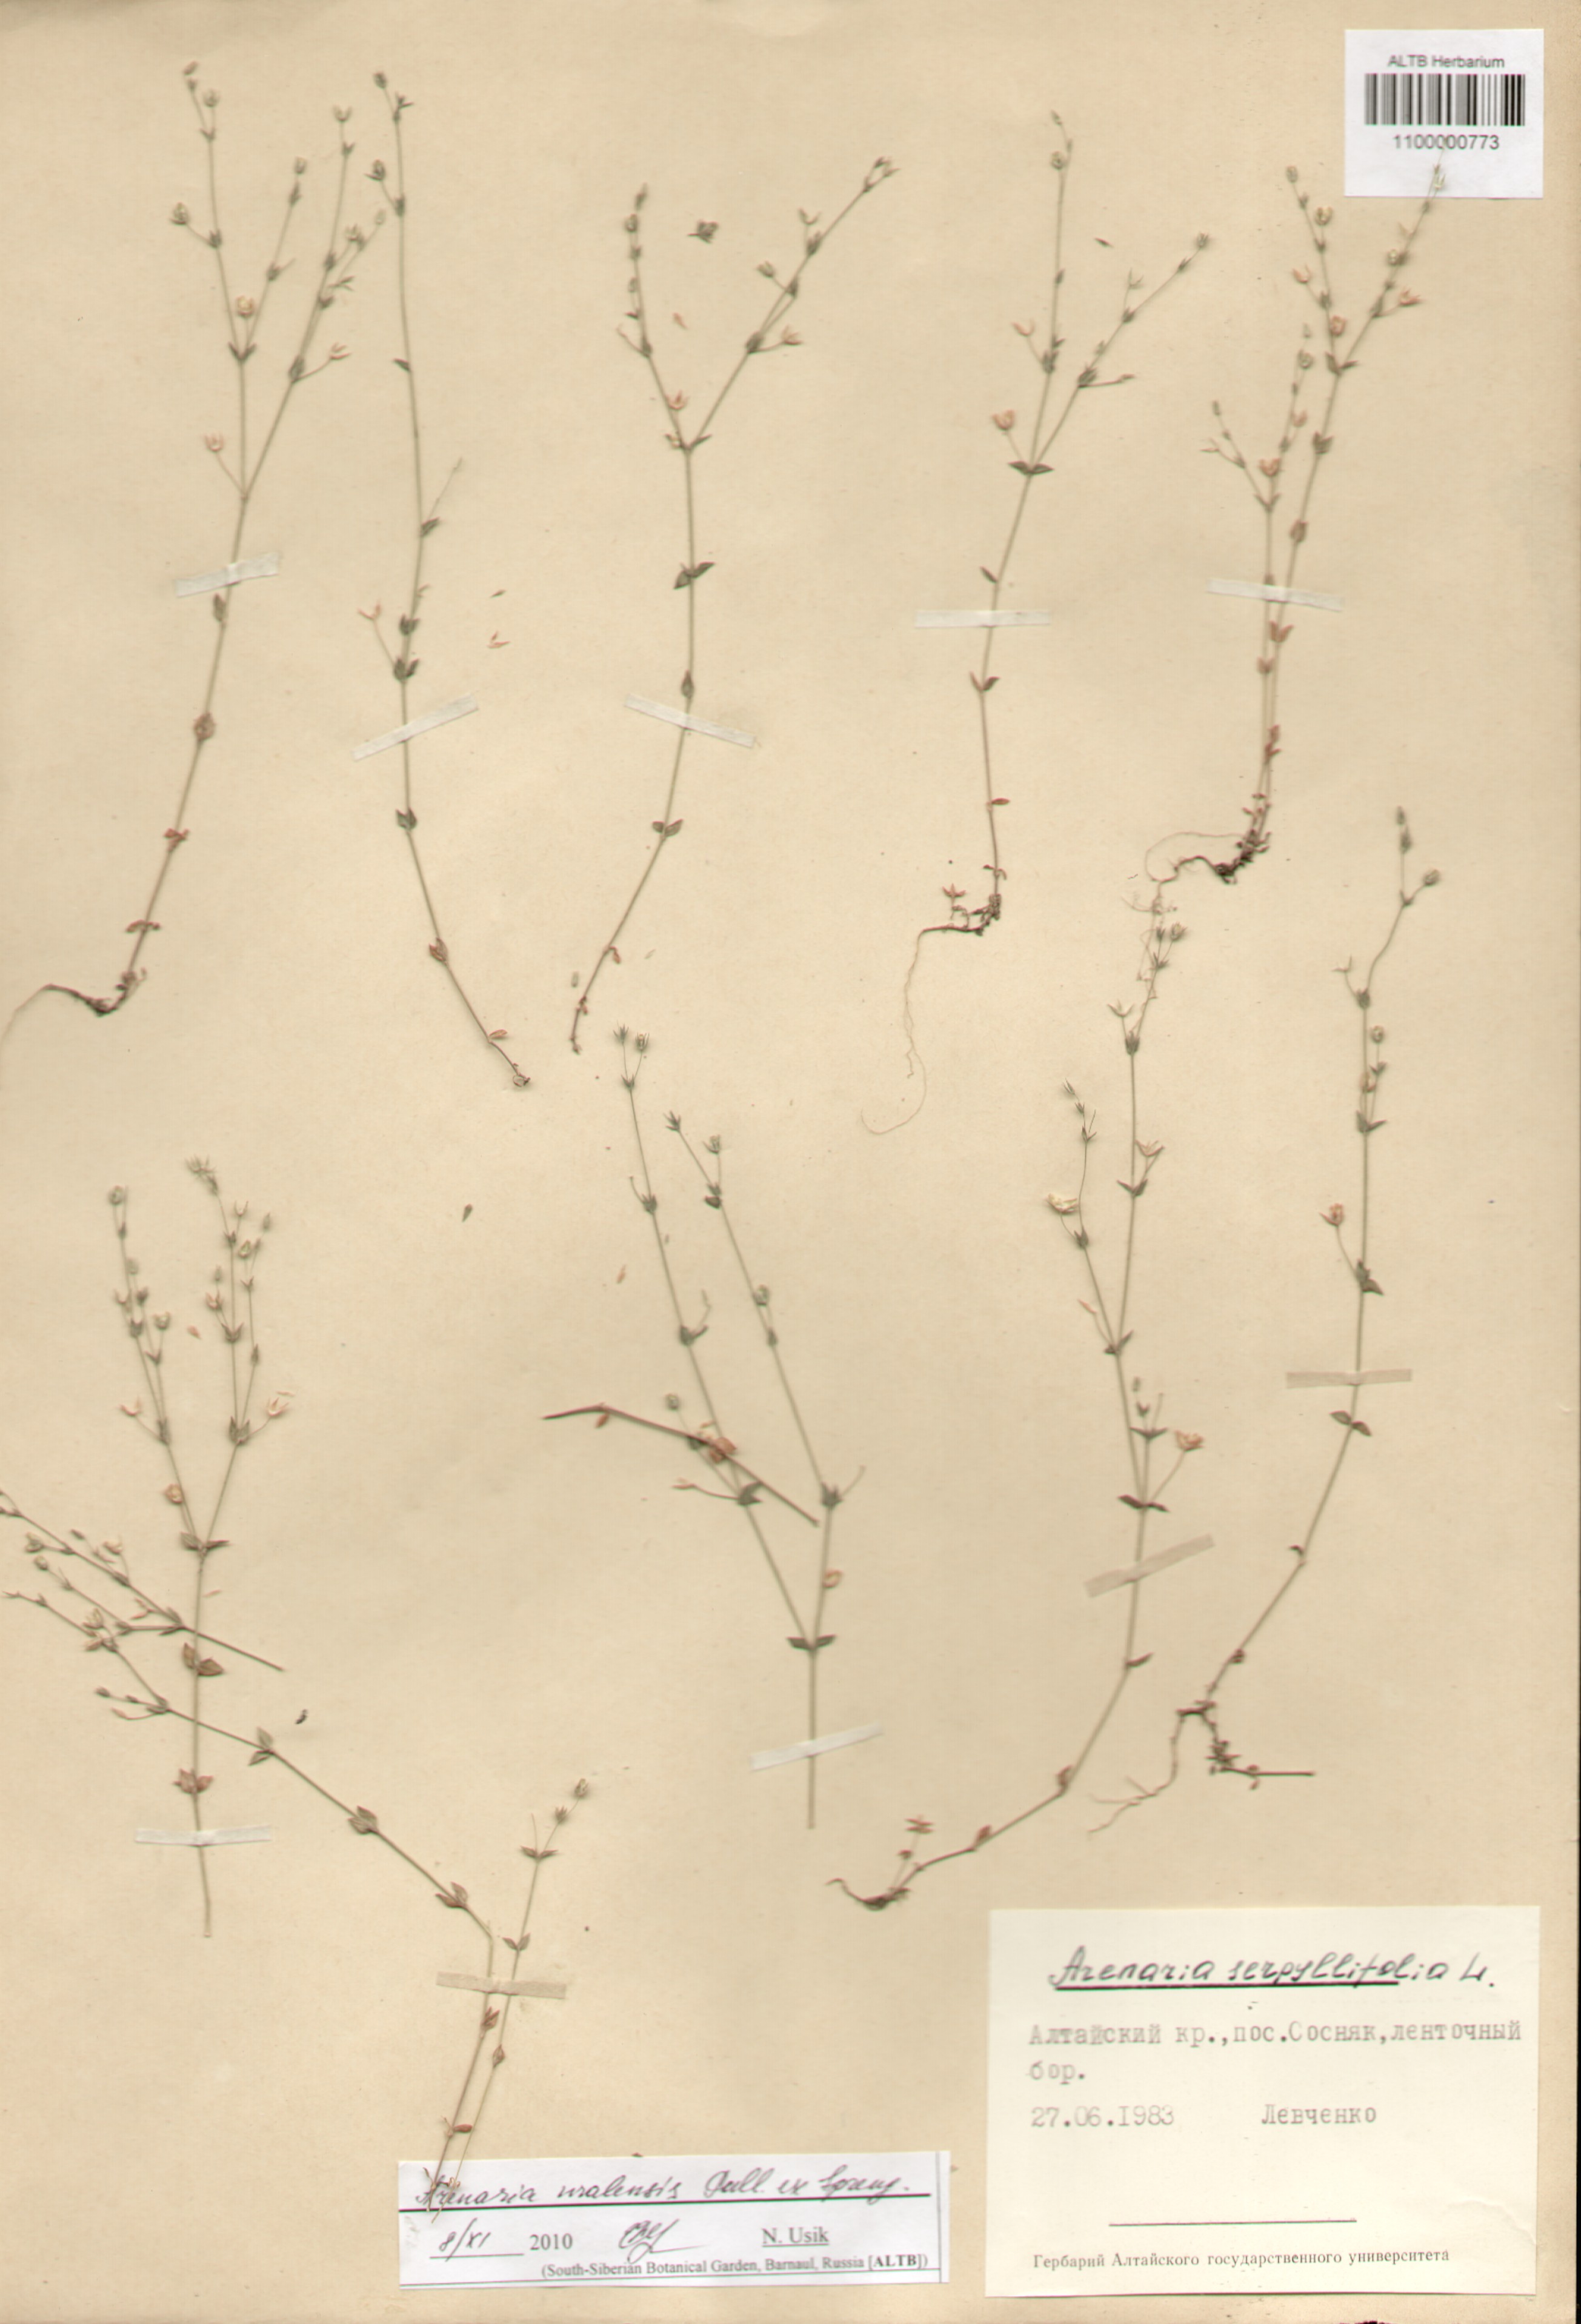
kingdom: Plantae
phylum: Tracheophyta
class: Magnoliopsida
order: Caryophyllales
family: Caryophyllaceae
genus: Arenaria
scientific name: Arenaria serpyllifolia
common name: Thyme-leaved sandwort
